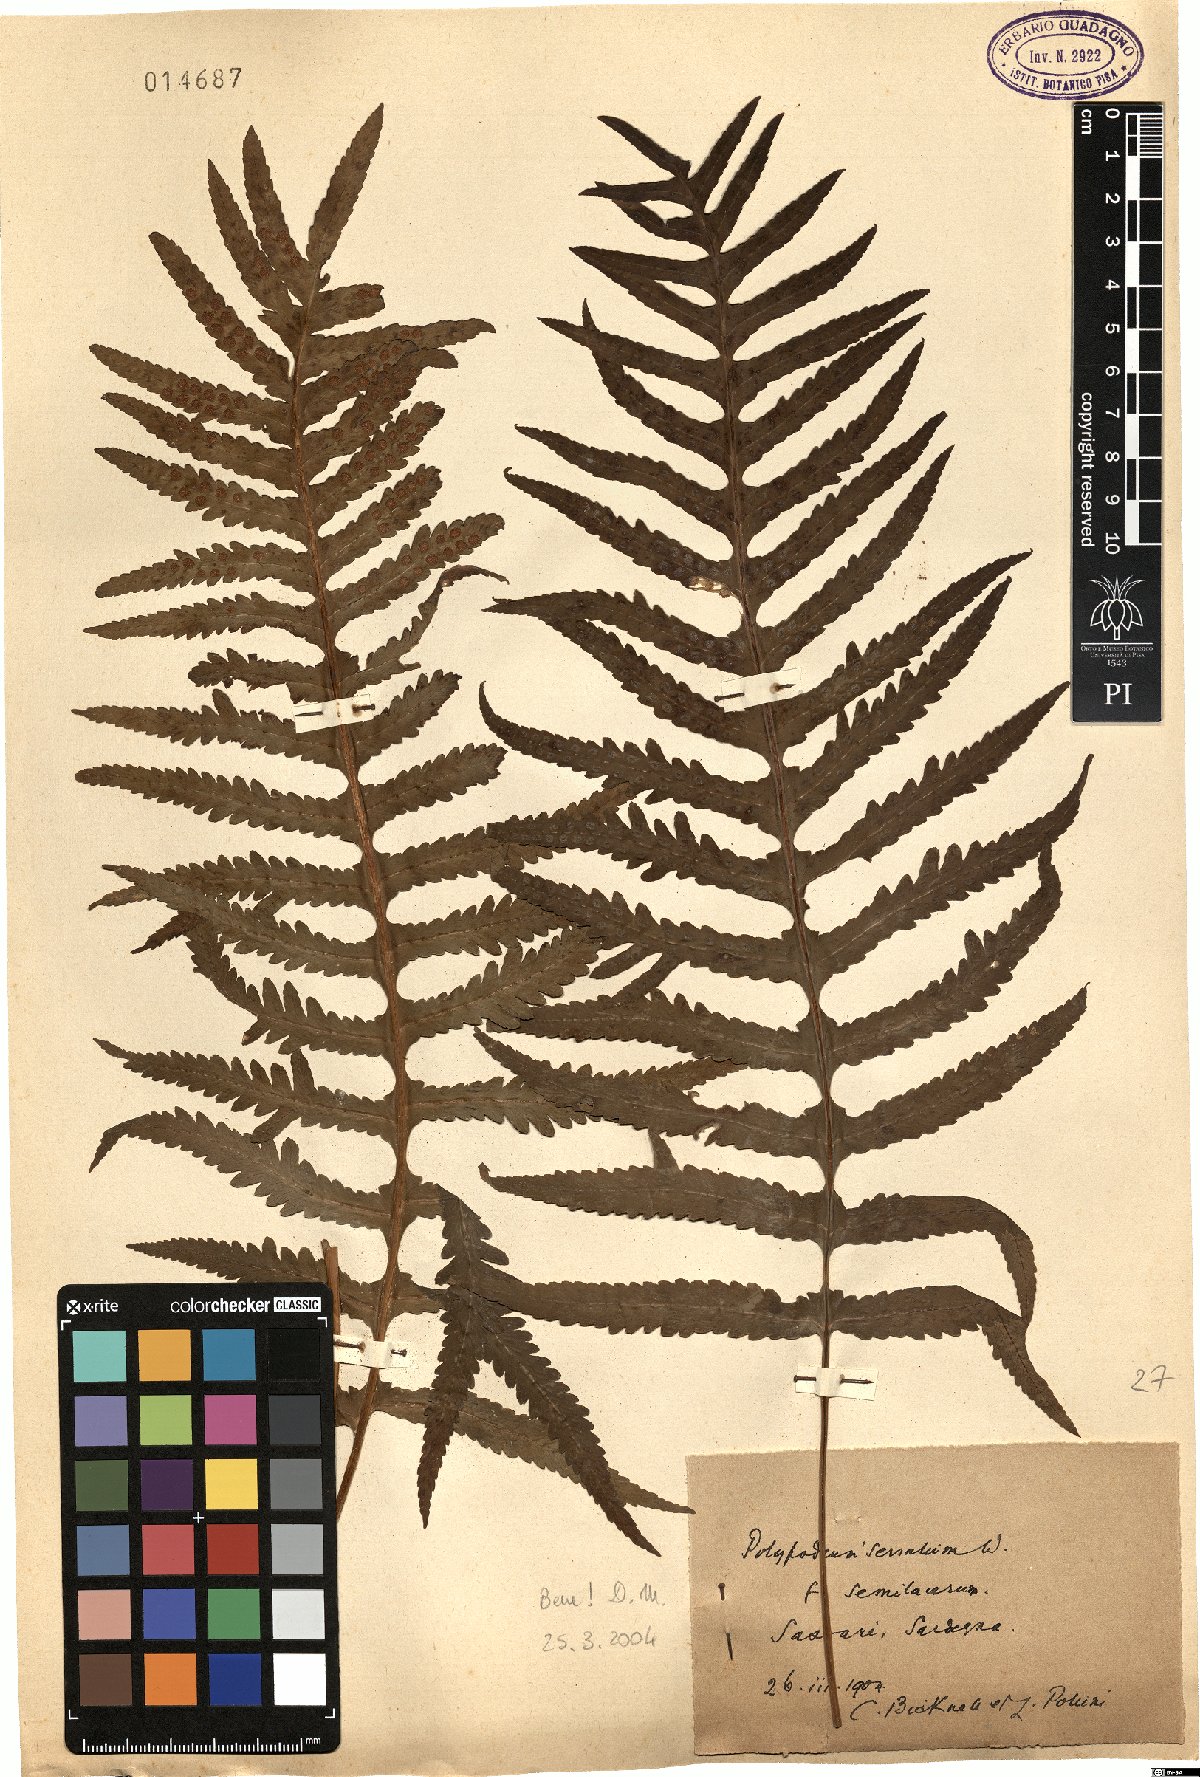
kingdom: Plantae
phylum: Tracheophyta
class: Polypodiopsida
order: Polypodiales
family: Polypodiaceae
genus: Polypodium
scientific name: Polypodium cambricum
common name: Southern polypody
